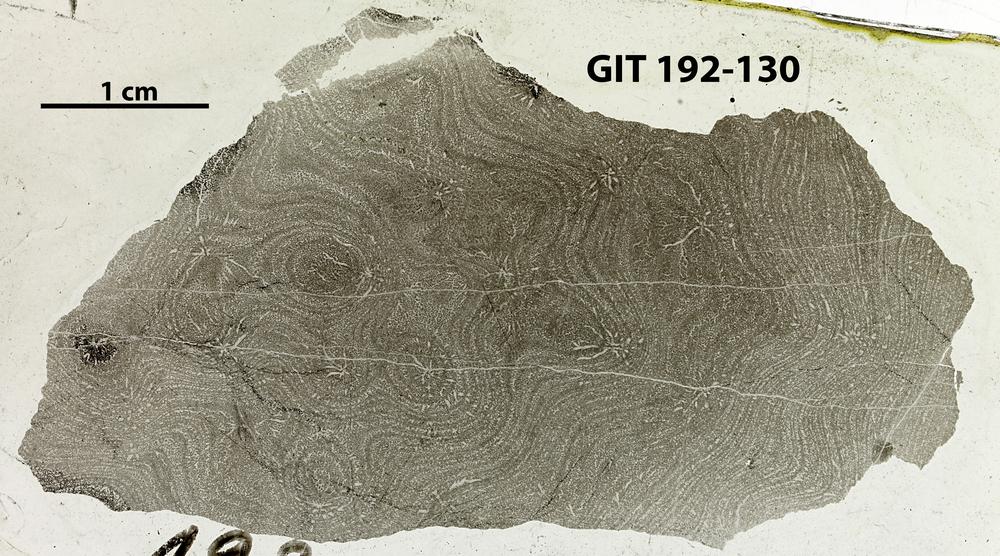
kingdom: Animalia
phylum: Porifera
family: Clathrodictyidae
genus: Clathrodictyon
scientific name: Clathrodictyon
